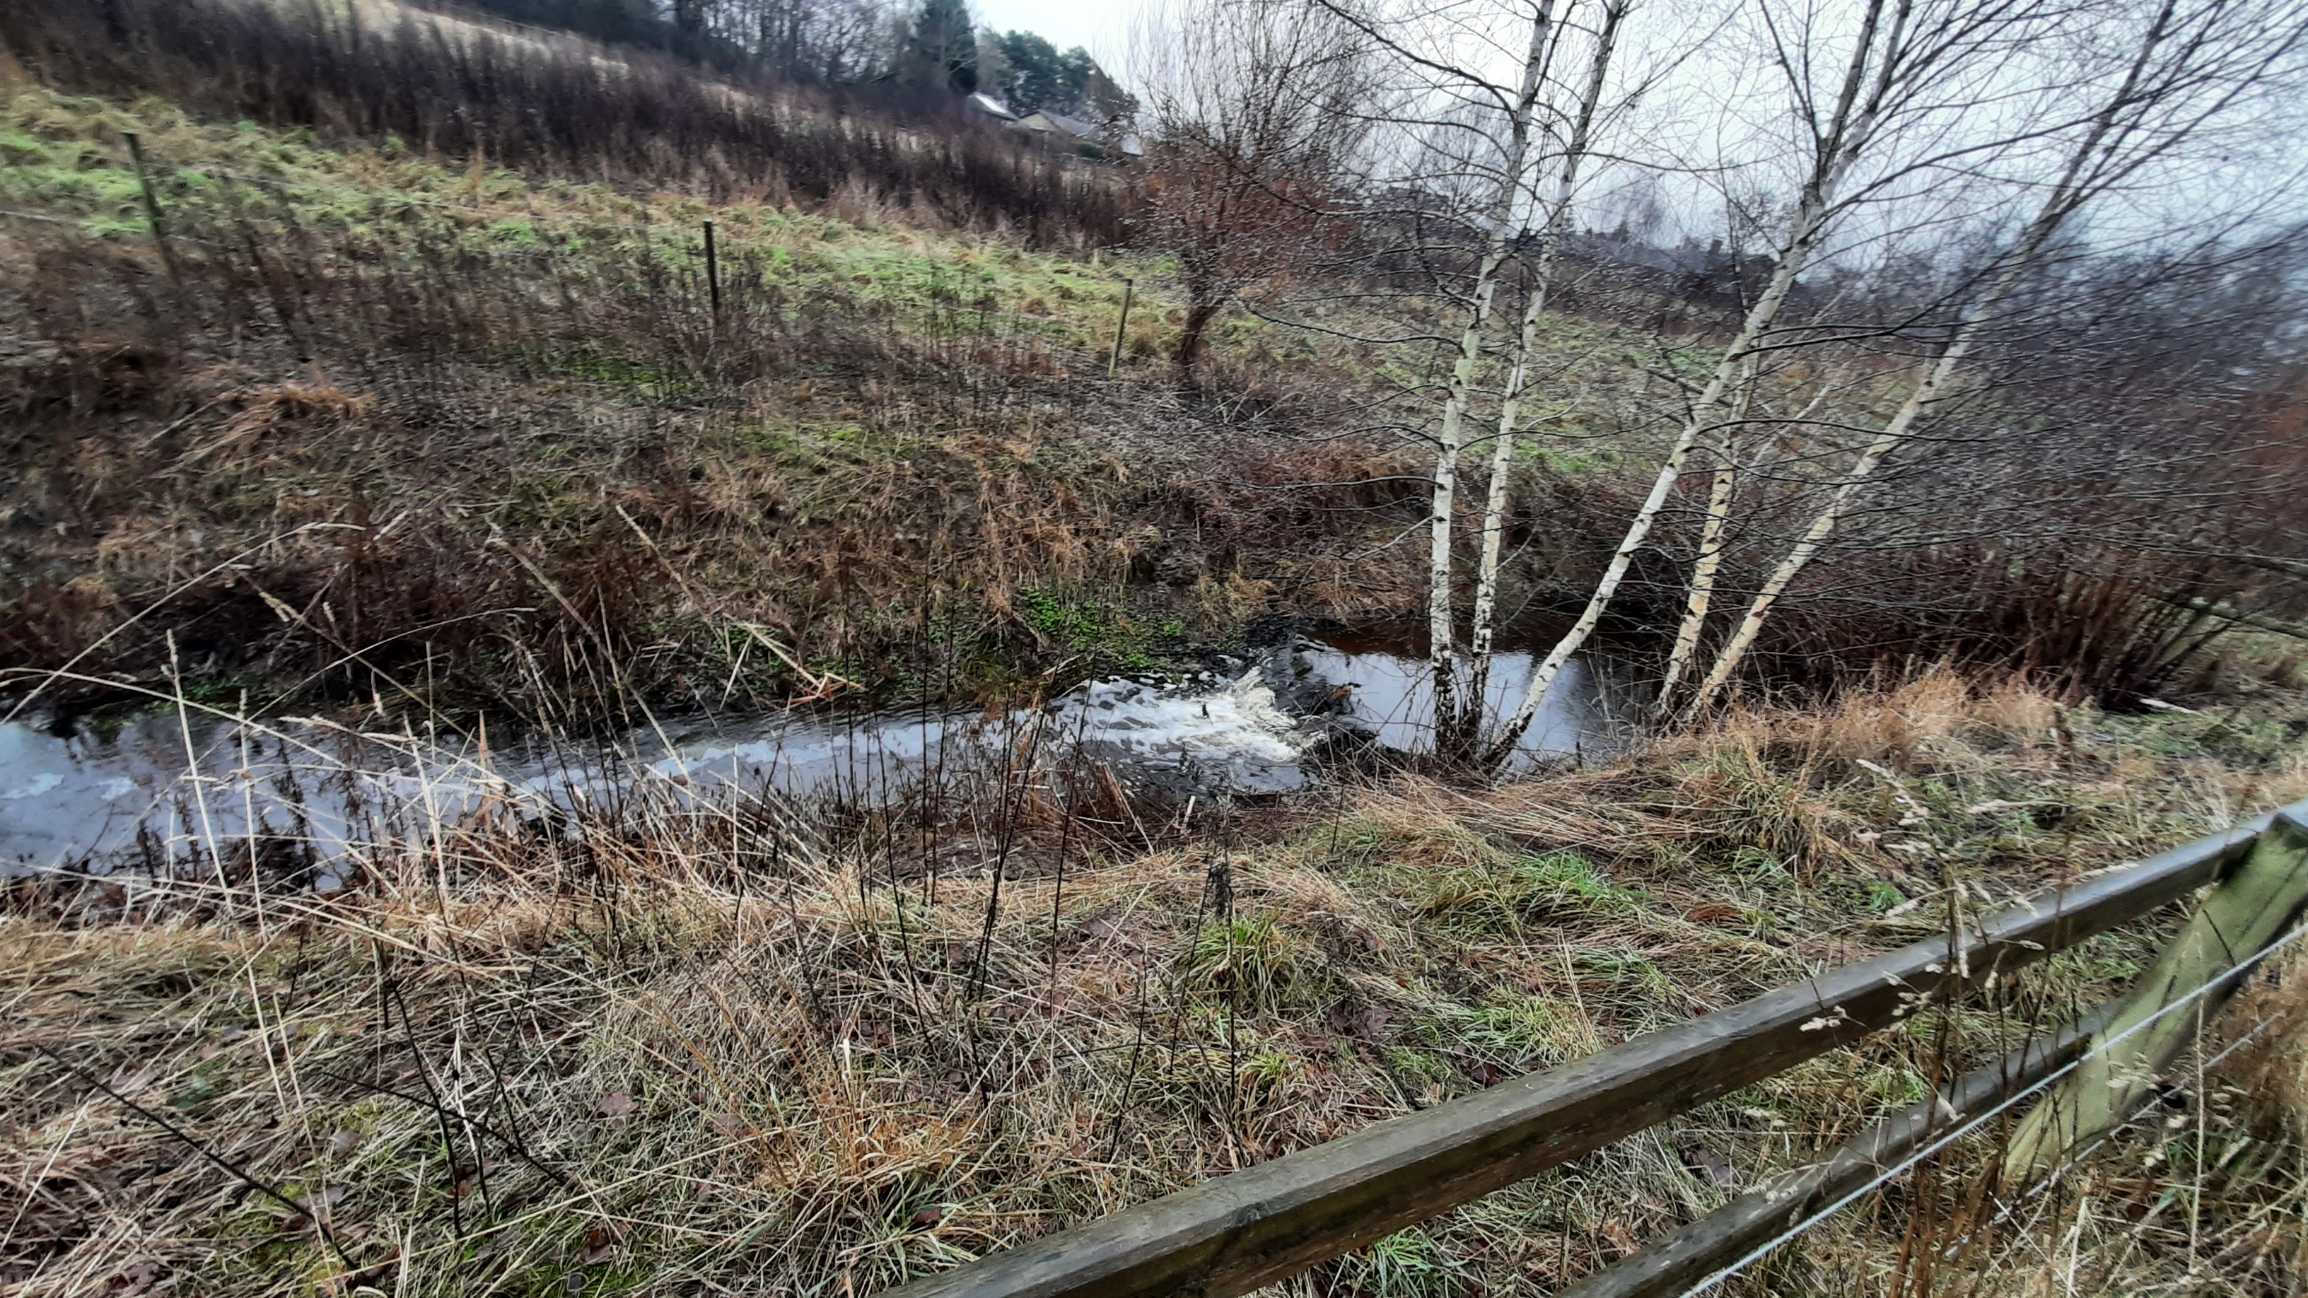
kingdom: Animalia
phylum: Chordata
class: Mammalia
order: Rodentia
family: Castoridae
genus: Castor
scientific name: Castor fiber
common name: Bæver
